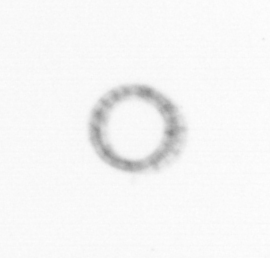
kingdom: Chromista
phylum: Ochrophyta
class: Bacillariophyceae
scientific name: Bacillariophyceae
